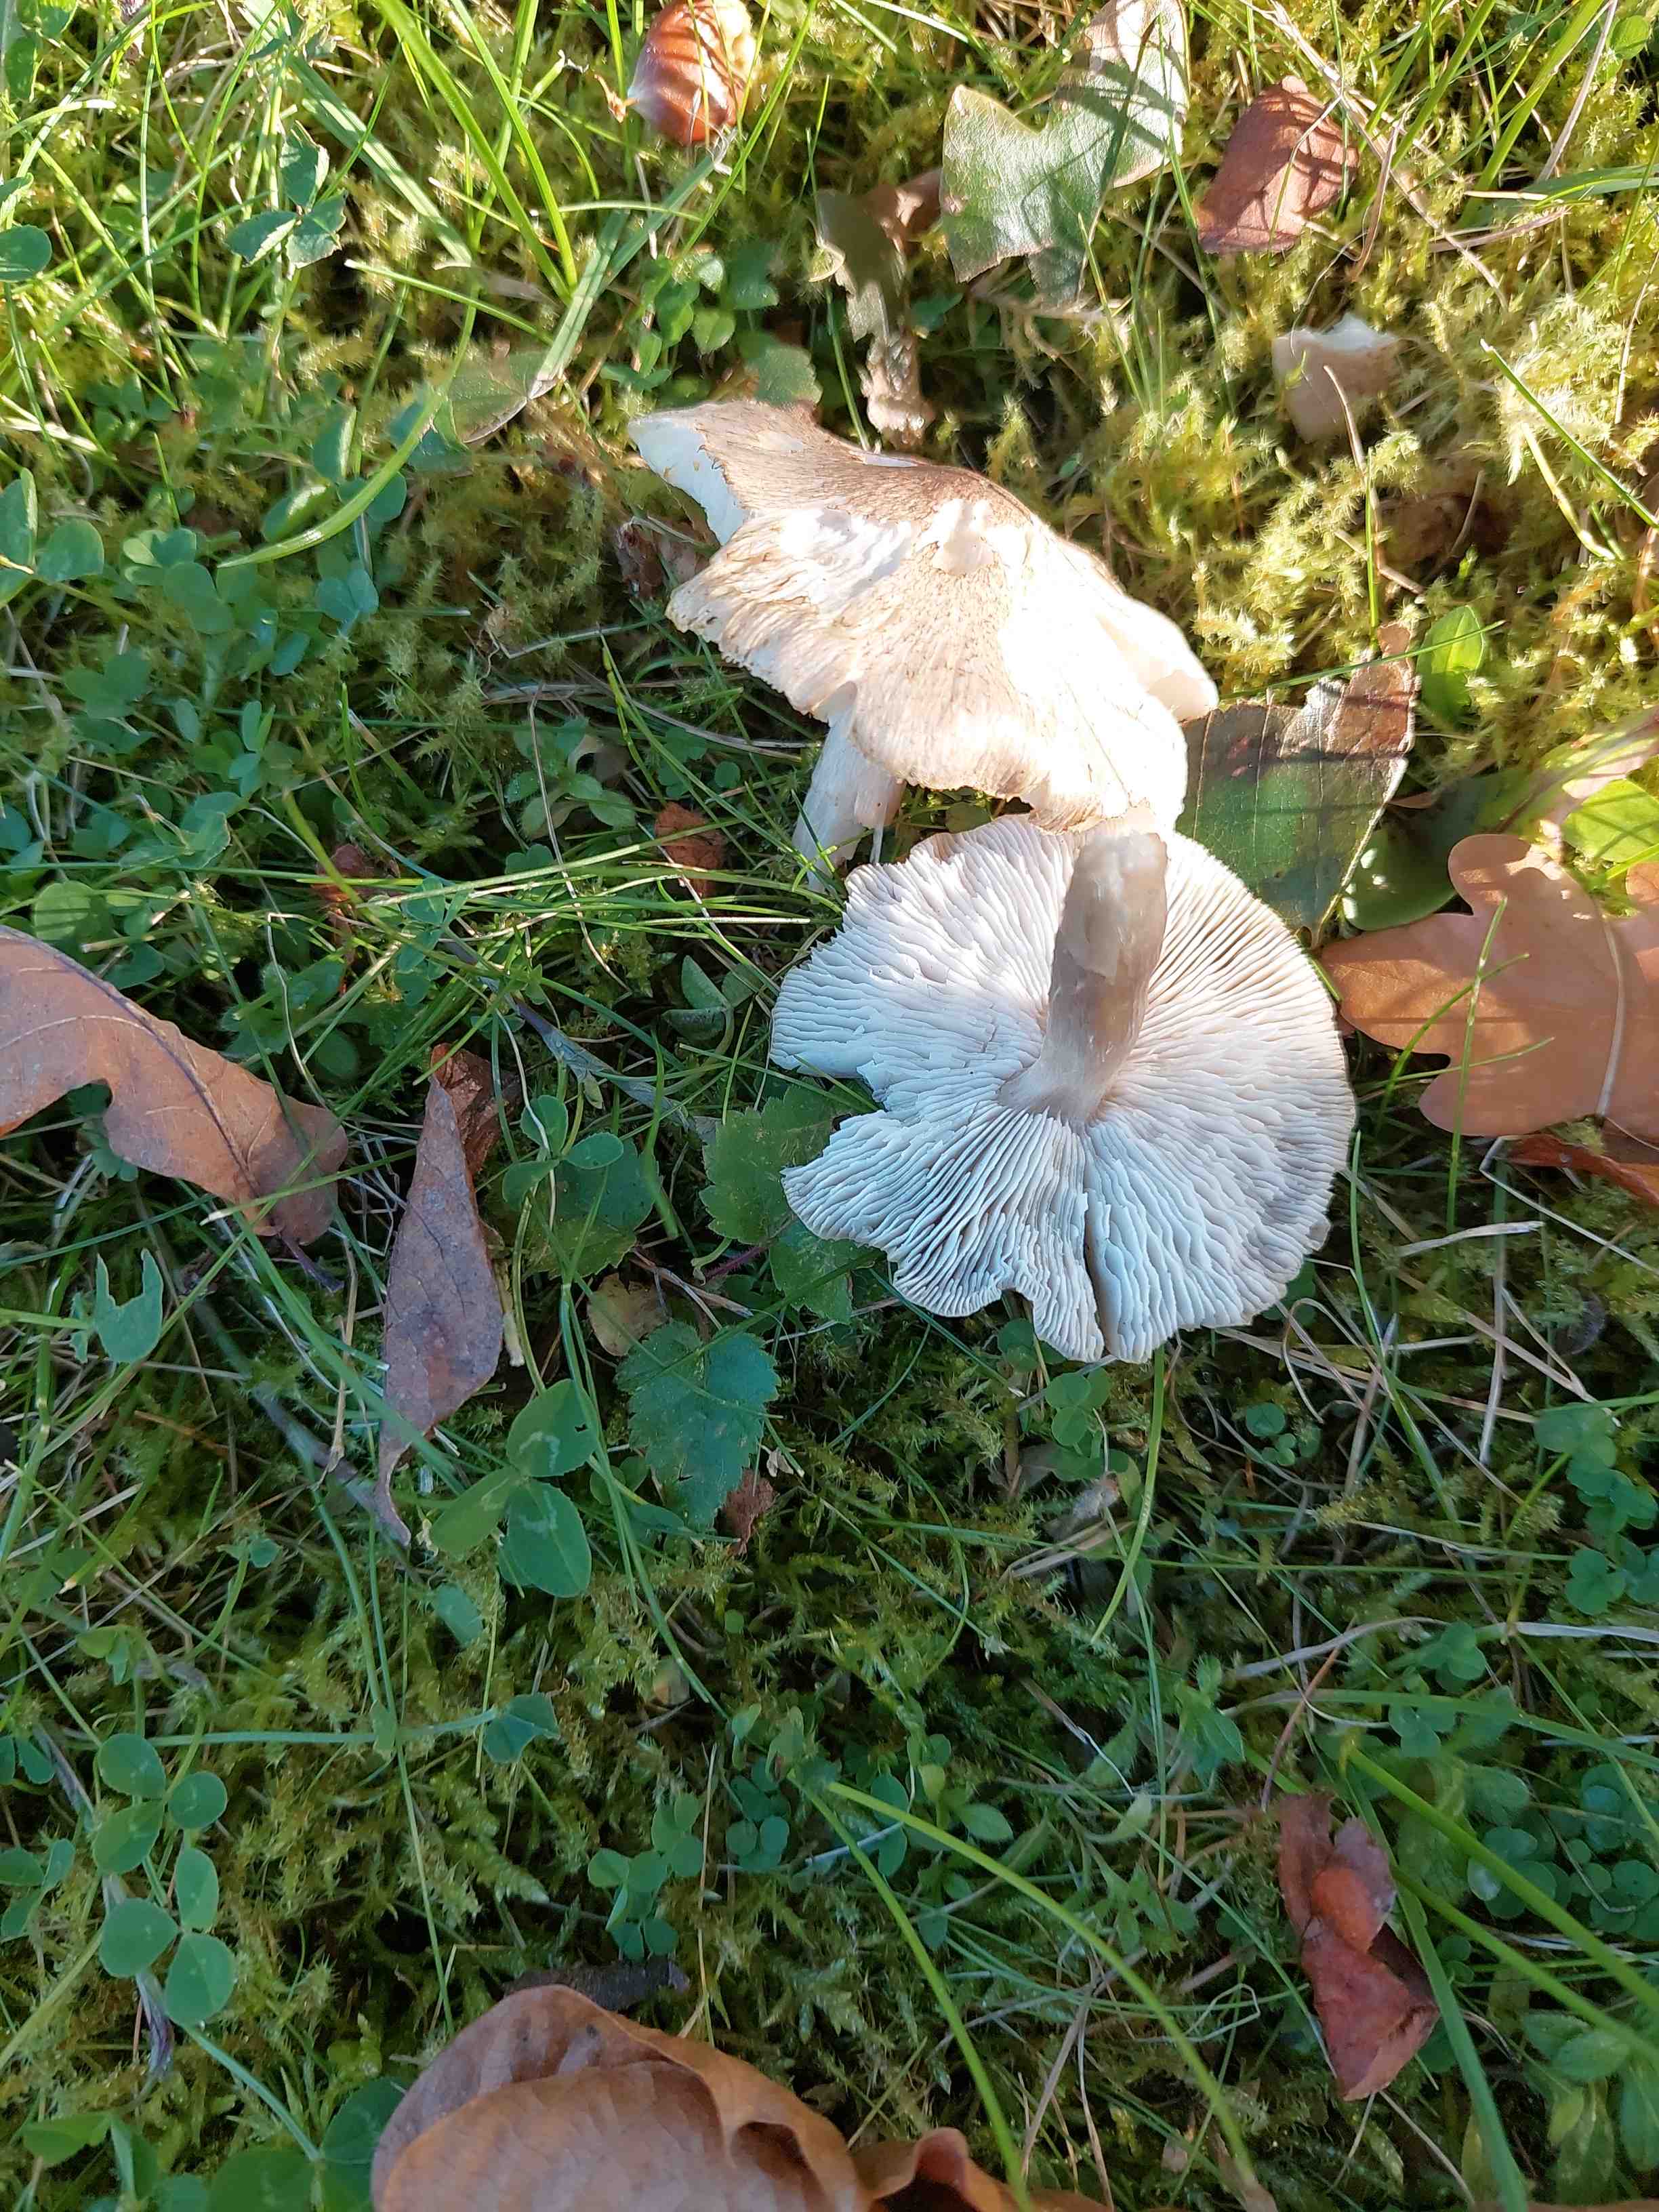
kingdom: Fungi
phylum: Basidiomycota
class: Agaricomycetes
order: Agaricales
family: Tricholomataceae
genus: Tricholoma
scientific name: Tricholoma scalpturatum
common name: gulplettet ridderhat
